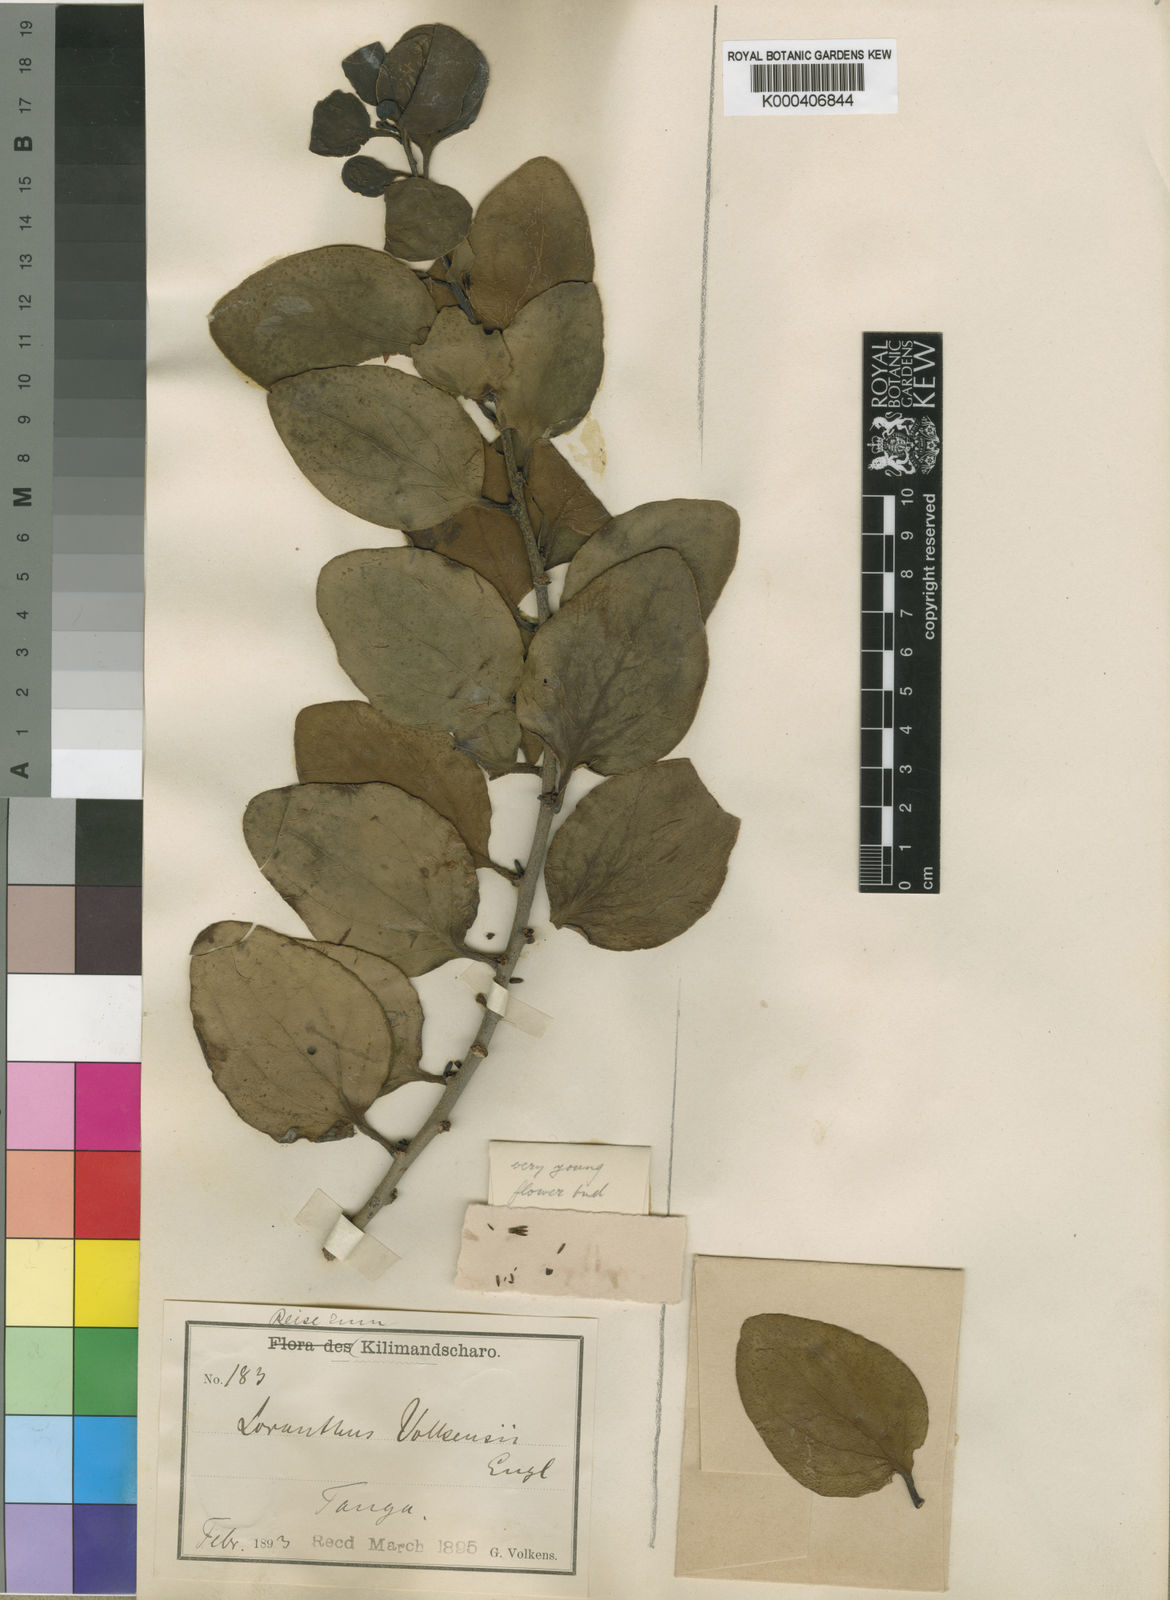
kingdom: Plantae
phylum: Tracheophyta
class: Magnoliopsida
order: Santalales
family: Loranthaceae
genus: Agelanthus
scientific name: Agelanthus sansibarensis
